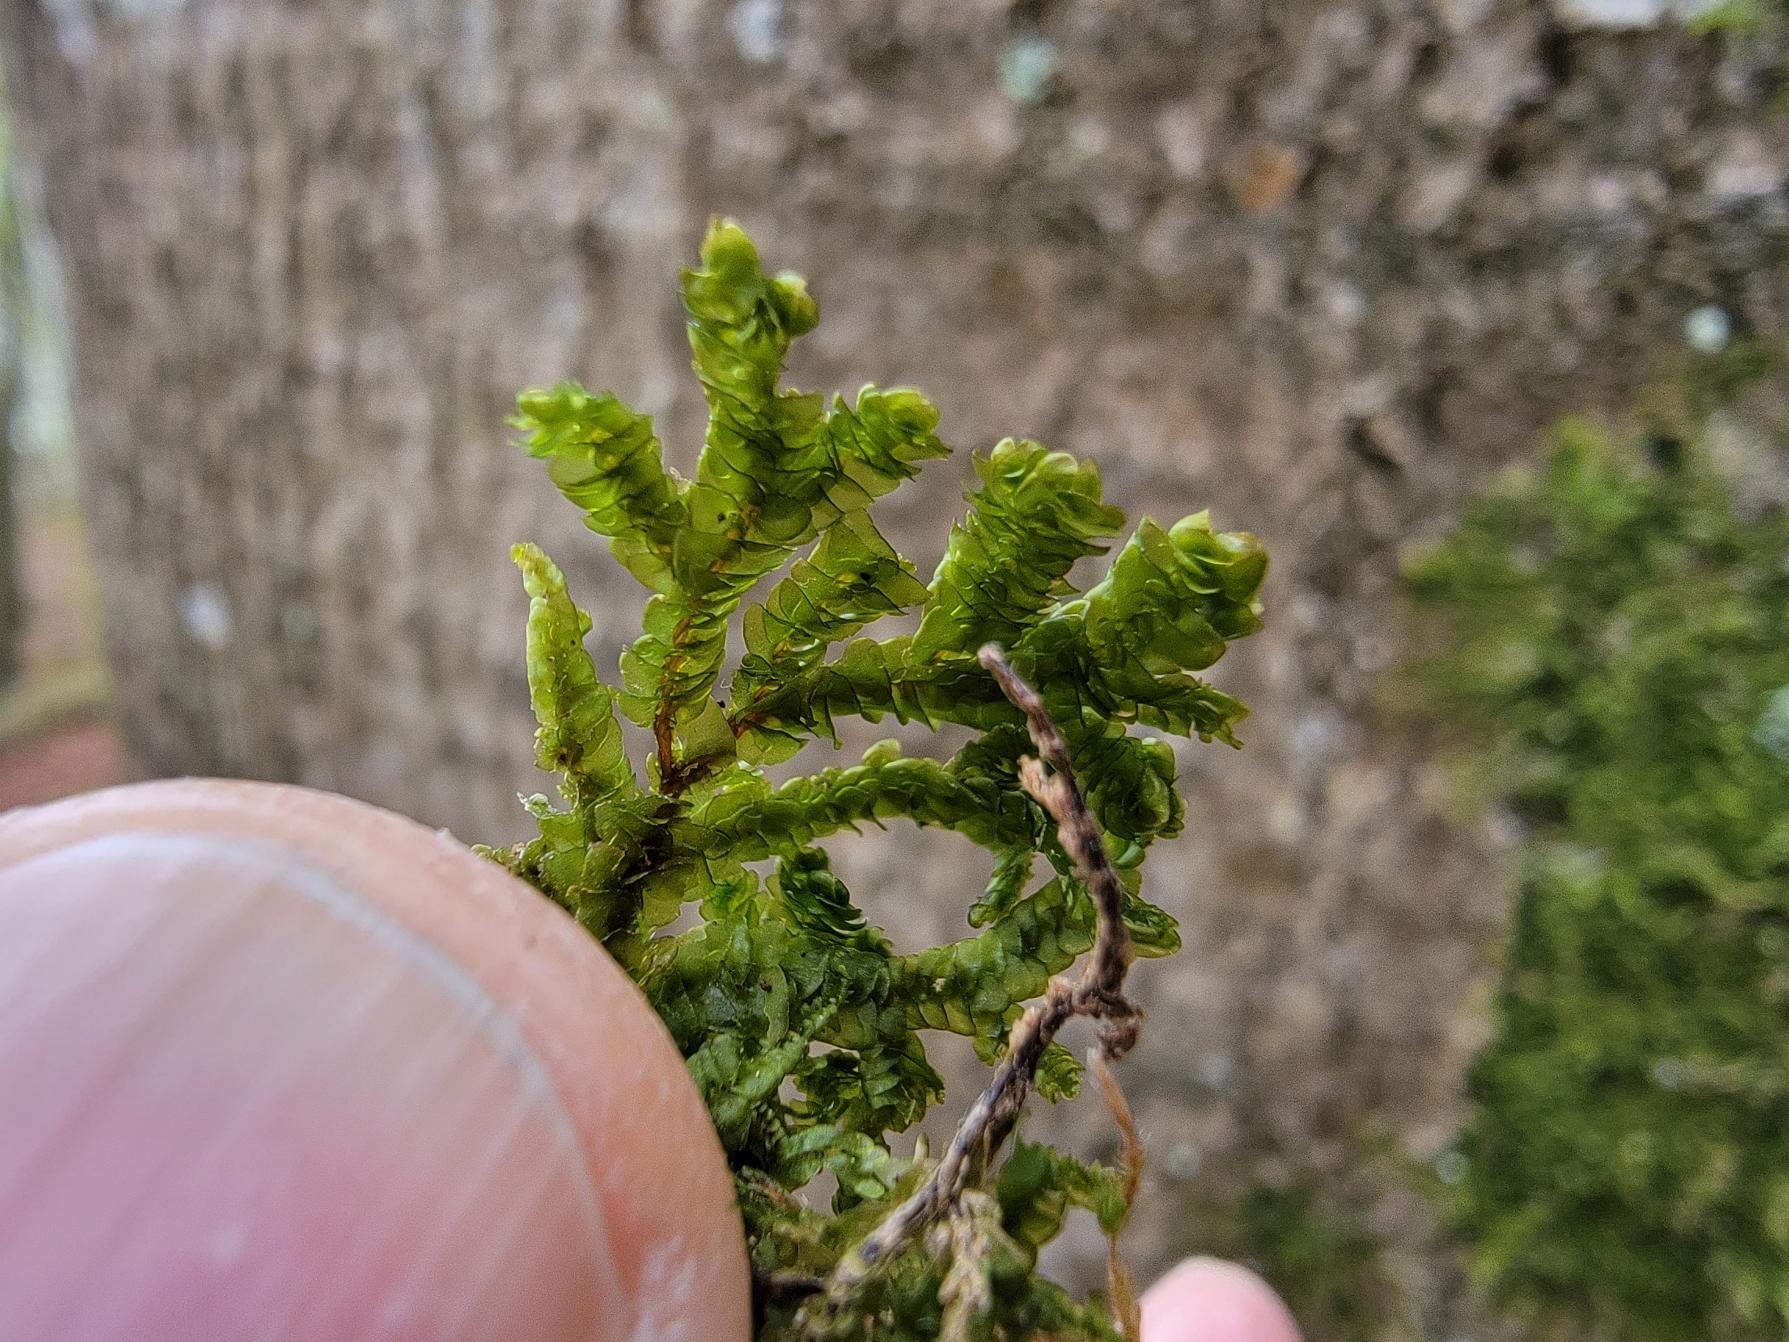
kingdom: Plantae
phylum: Marchantiophyta
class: Jungermanniopsida
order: Porellales
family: Porellaceae
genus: Porella
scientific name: Porella platyphylla
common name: Almindelig skælryg
